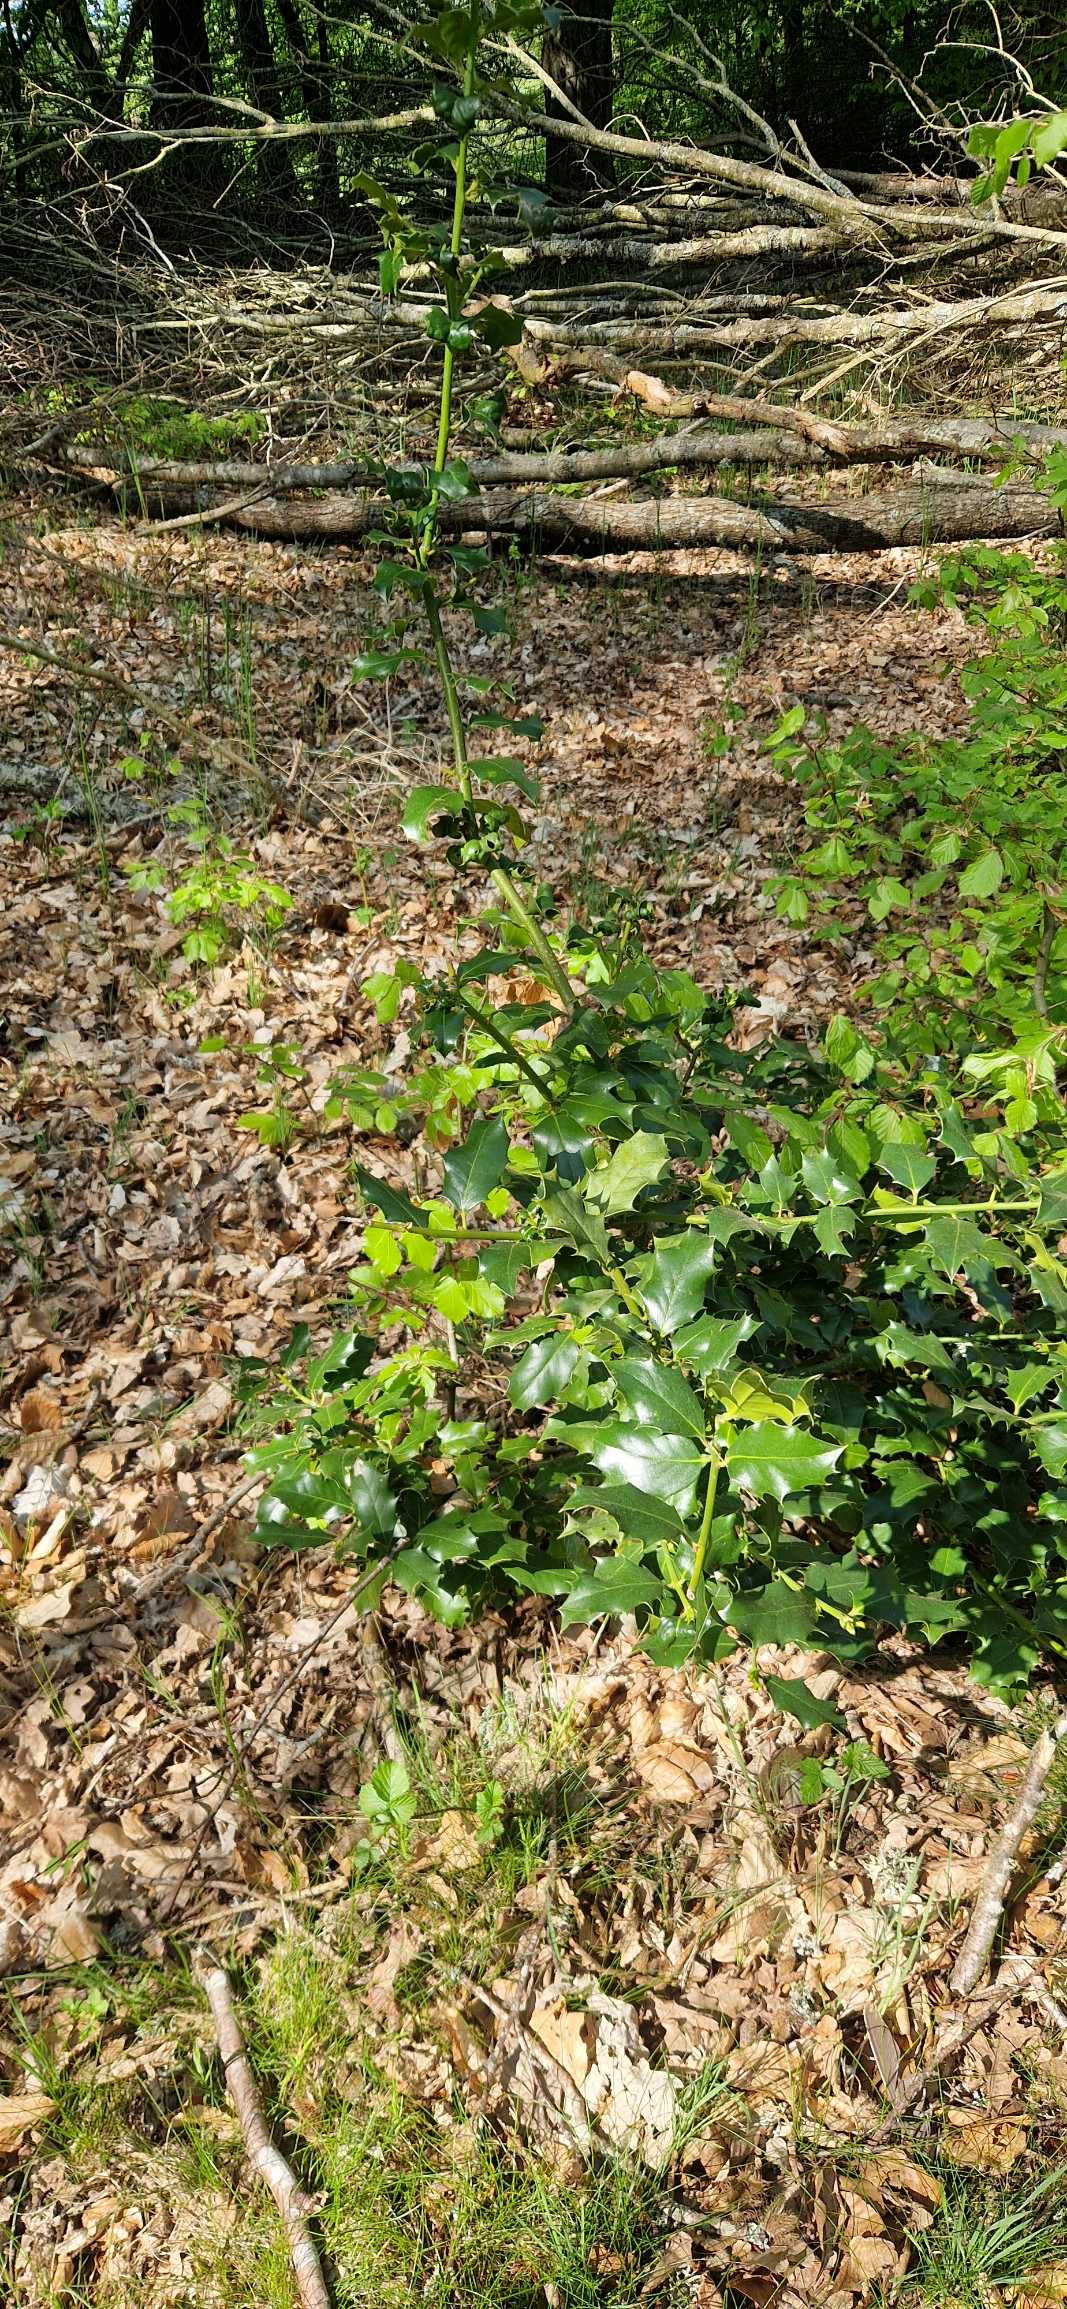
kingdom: Plantae
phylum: Tracheophyta
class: Magnoliopsida
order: Aquifoliales
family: Aquifoliaceae
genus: Ilex
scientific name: Ilex aquifolium
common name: Kristtorn
